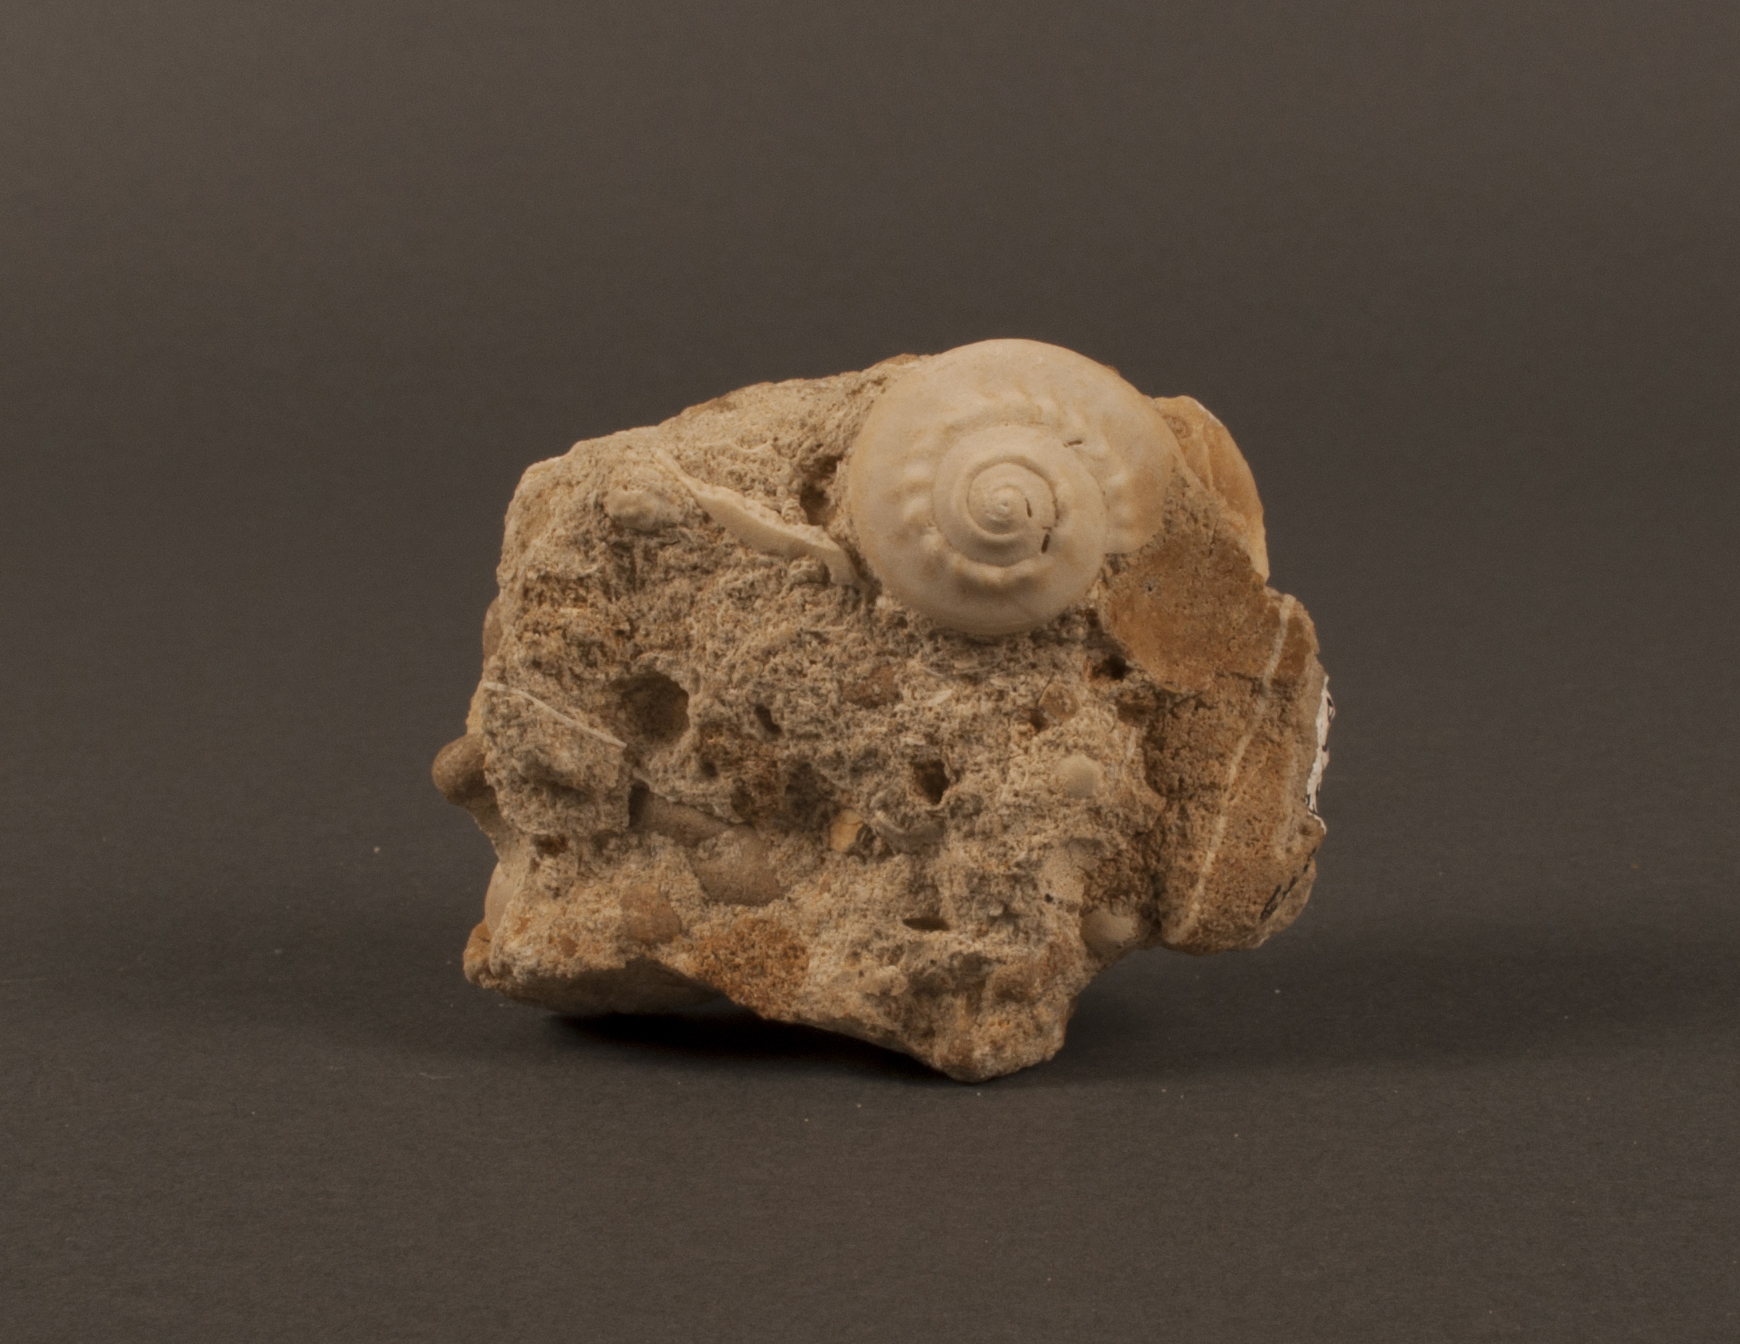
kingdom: Animalia
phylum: Mollusca
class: Gastropoda
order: Pleurotomariida
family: Ptychomphalidae
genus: Ptychomphalus
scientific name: Ptychomphalus Pleurotomaria wehenkeli
